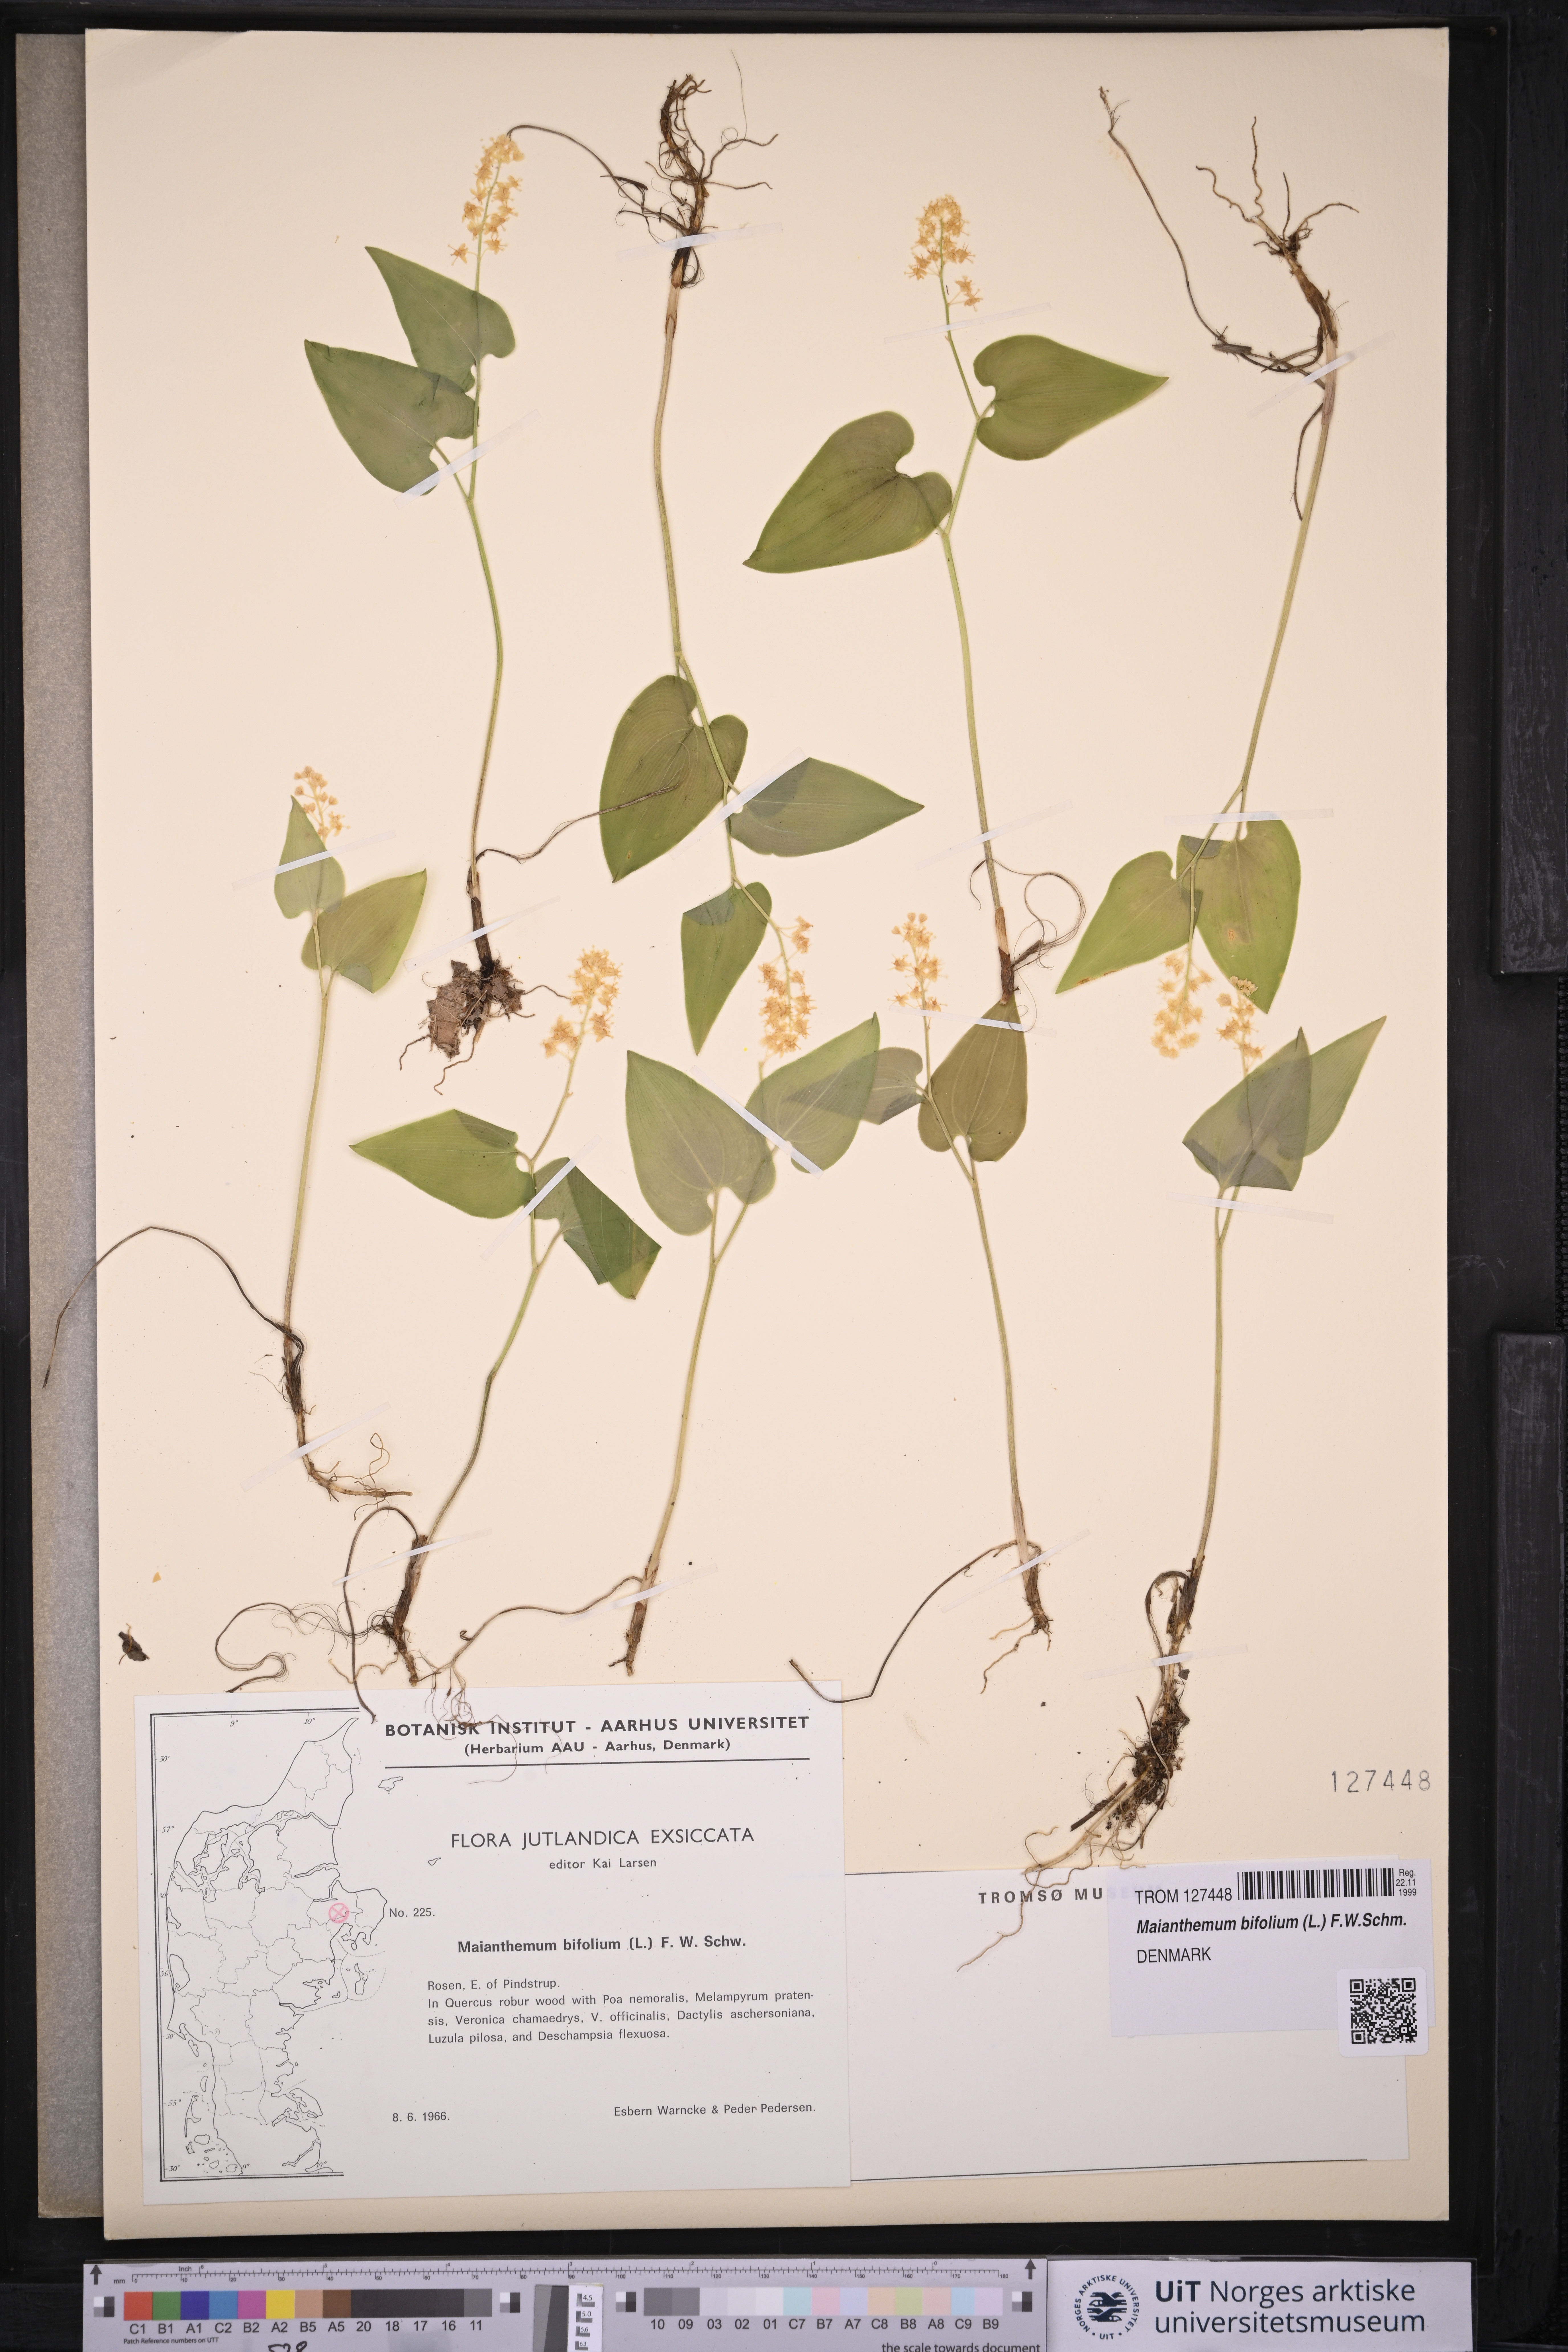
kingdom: Plantae
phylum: Tracheophyta
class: Liliopsida
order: Asparagales
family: Asparagaceae
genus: Maianthemum
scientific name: Maianthemum bifolium
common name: May lily
